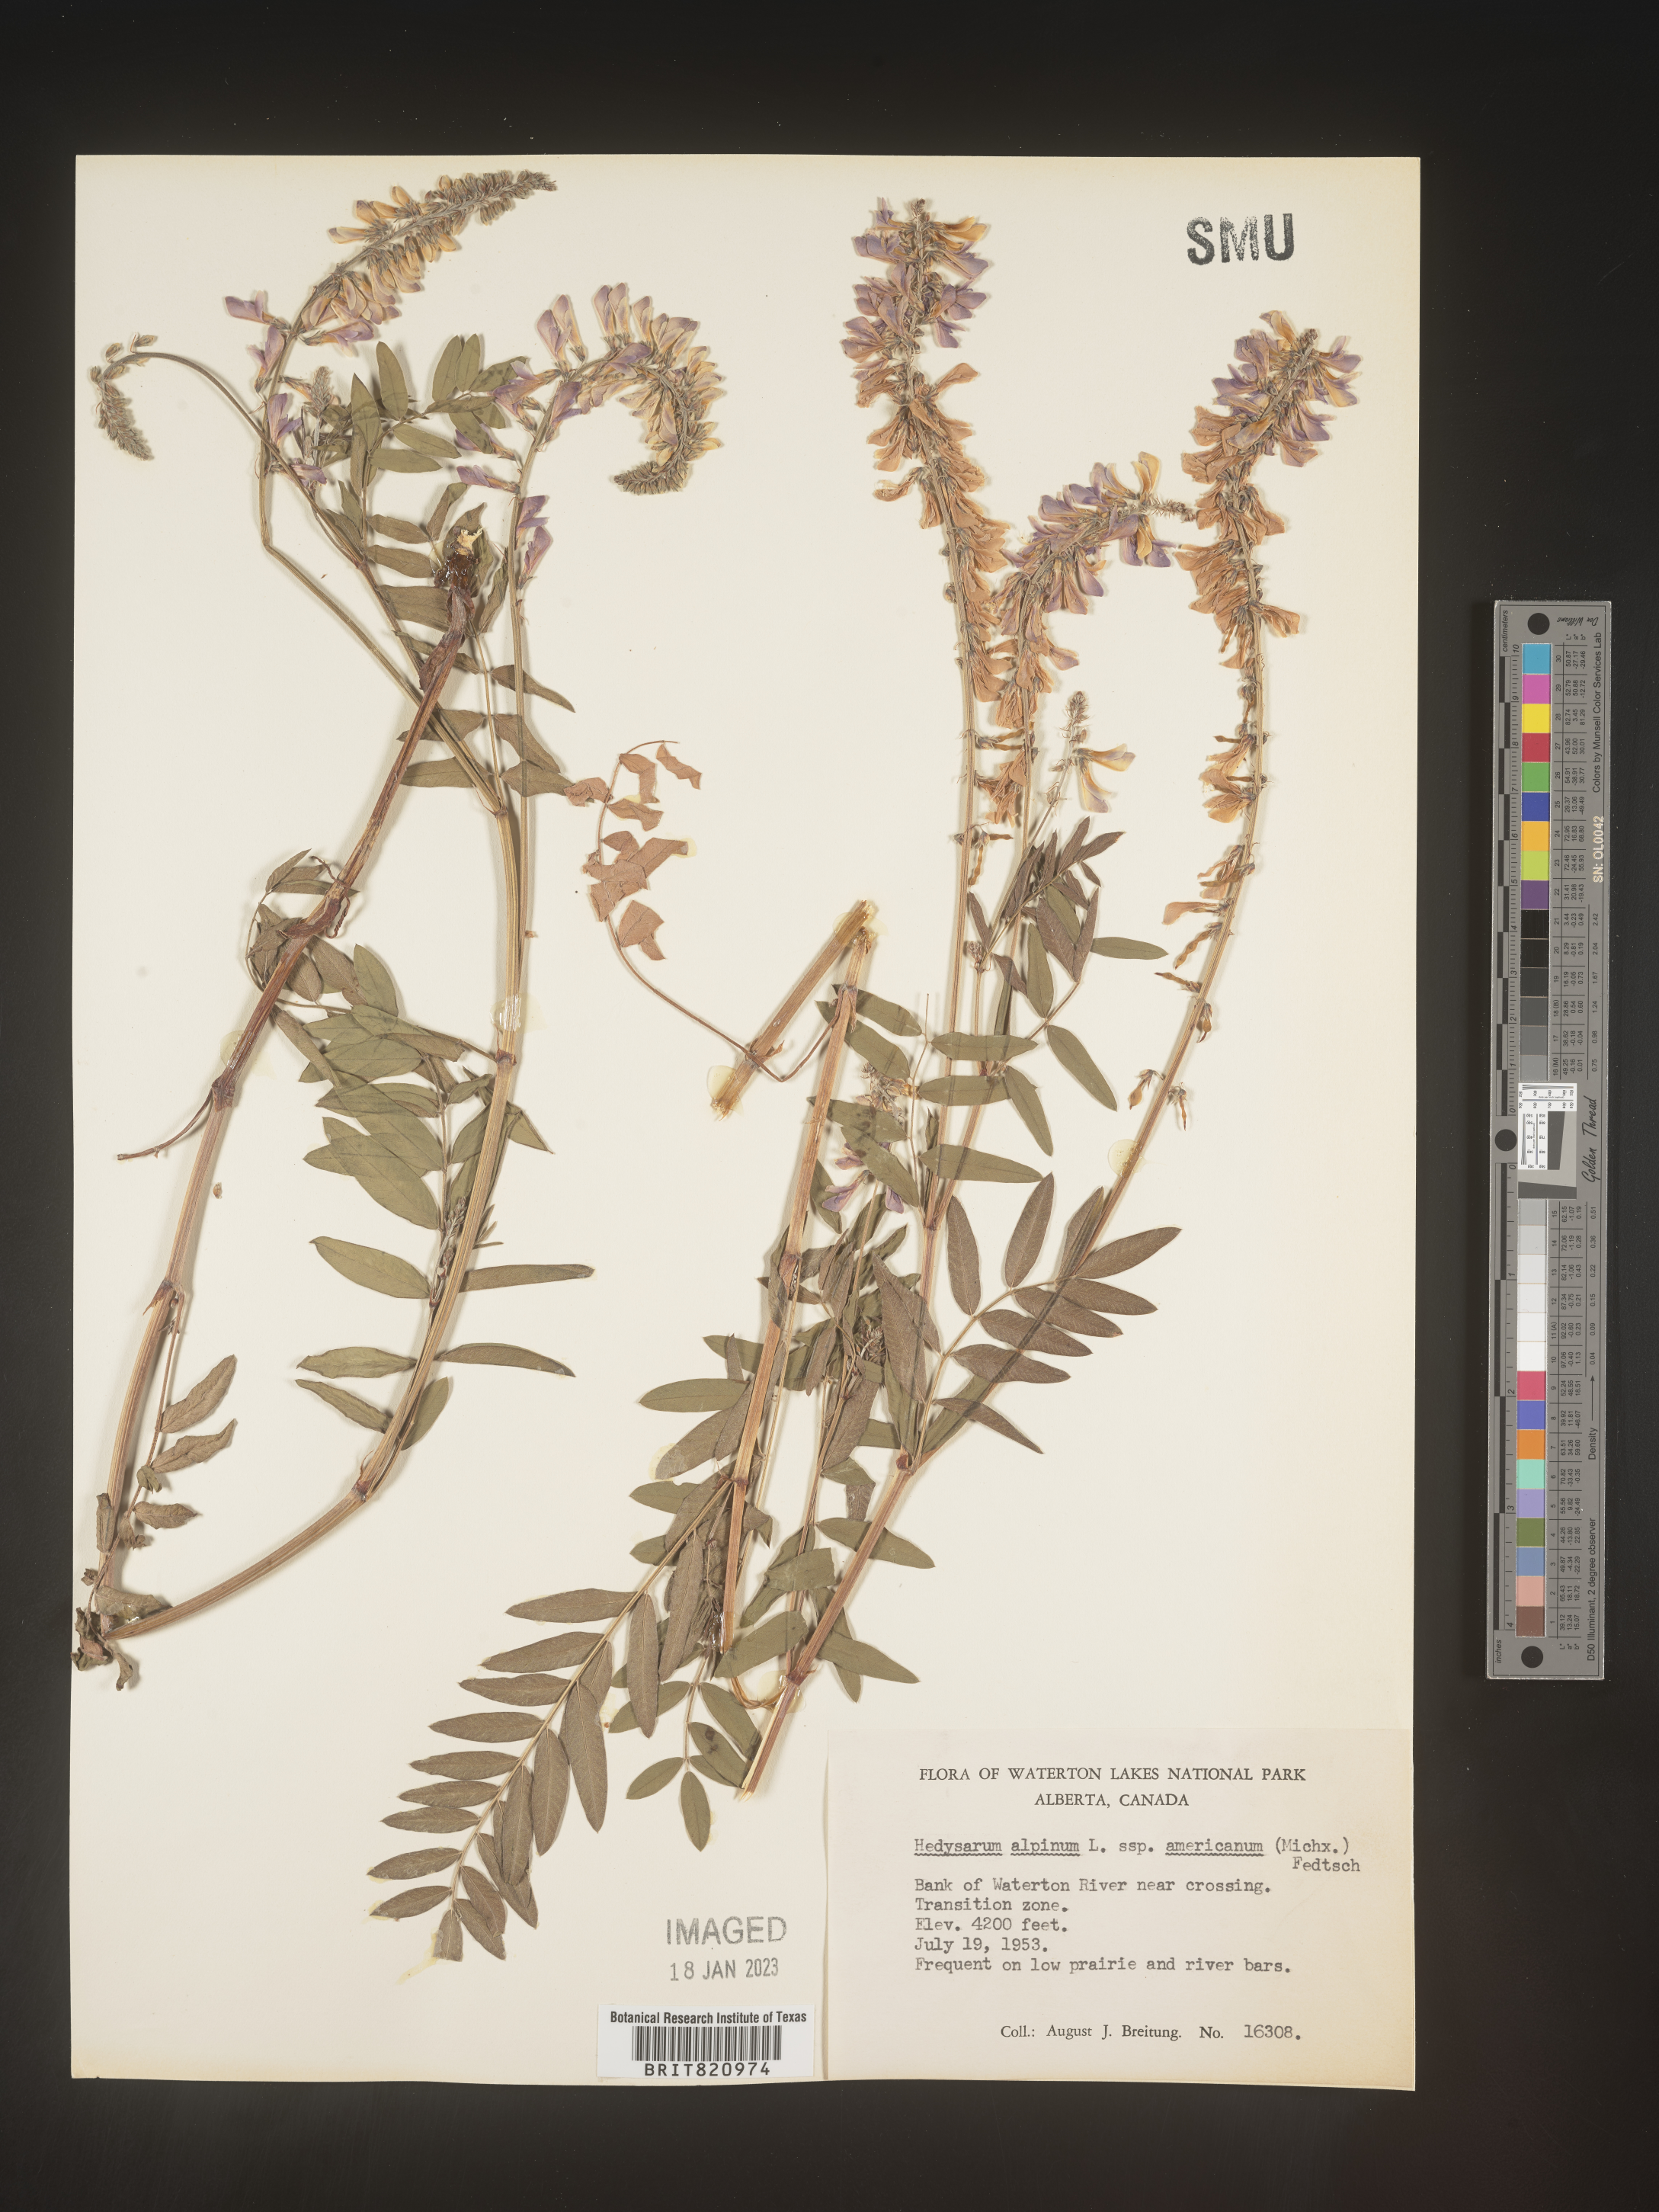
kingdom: Plantae
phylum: Tracheophyta
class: Magnoliopsida
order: Fabales
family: Fabaceae
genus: Hedysarum
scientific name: Hedysarum alpinum
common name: Alpine sweet-vetch
